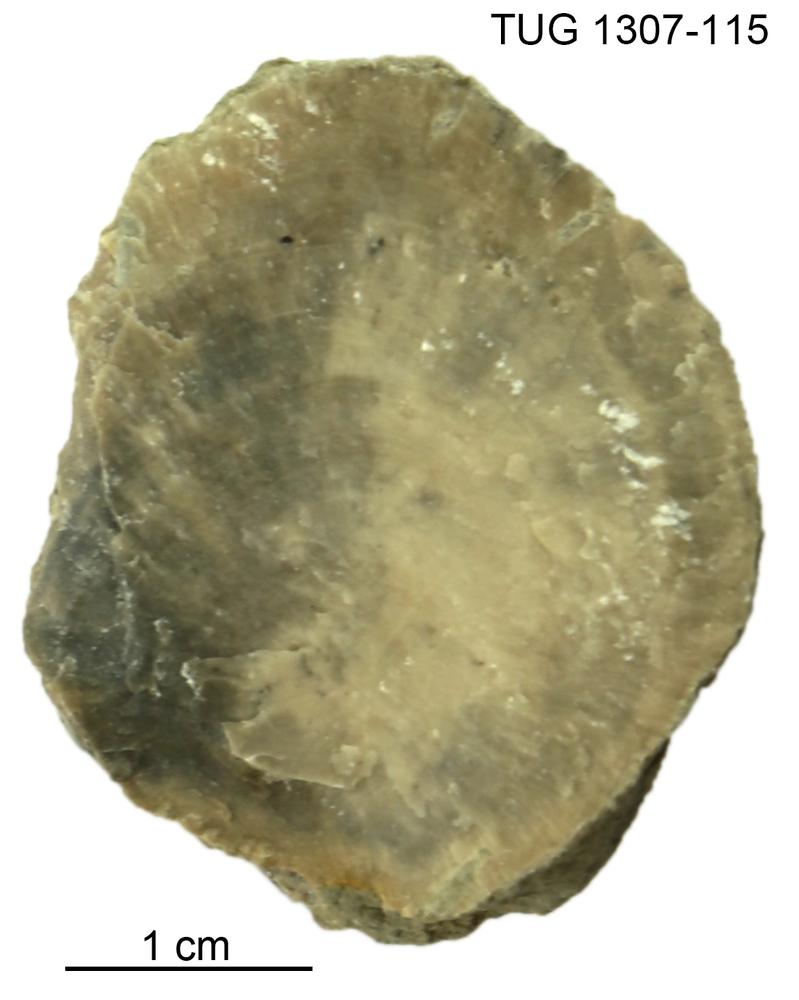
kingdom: Animalia
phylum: Porifera
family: Chaetetidae
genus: Solenopora
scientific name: Solenopora
